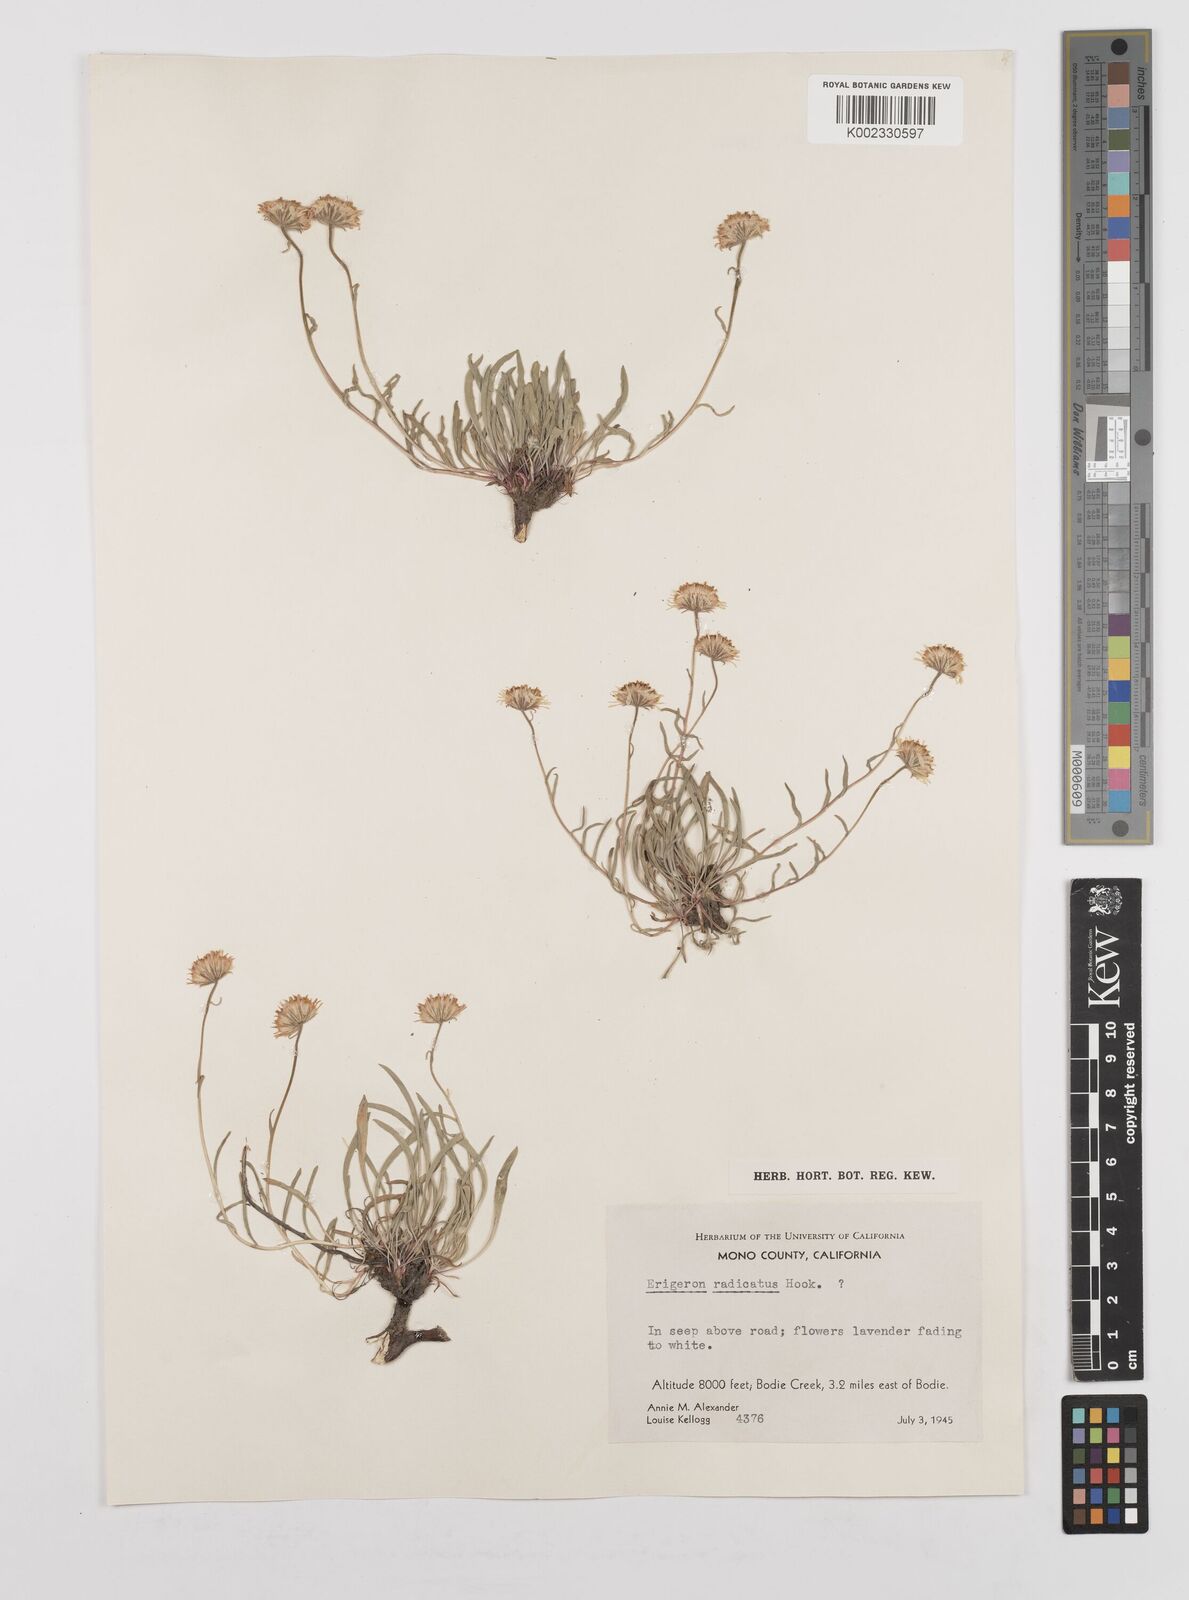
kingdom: Plantae
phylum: Tracheophyta
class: Magnoliopsida
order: Asterales
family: Asteraceae
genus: Erigeron
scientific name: Erigeron radicatus
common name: Dwarf fleabane
